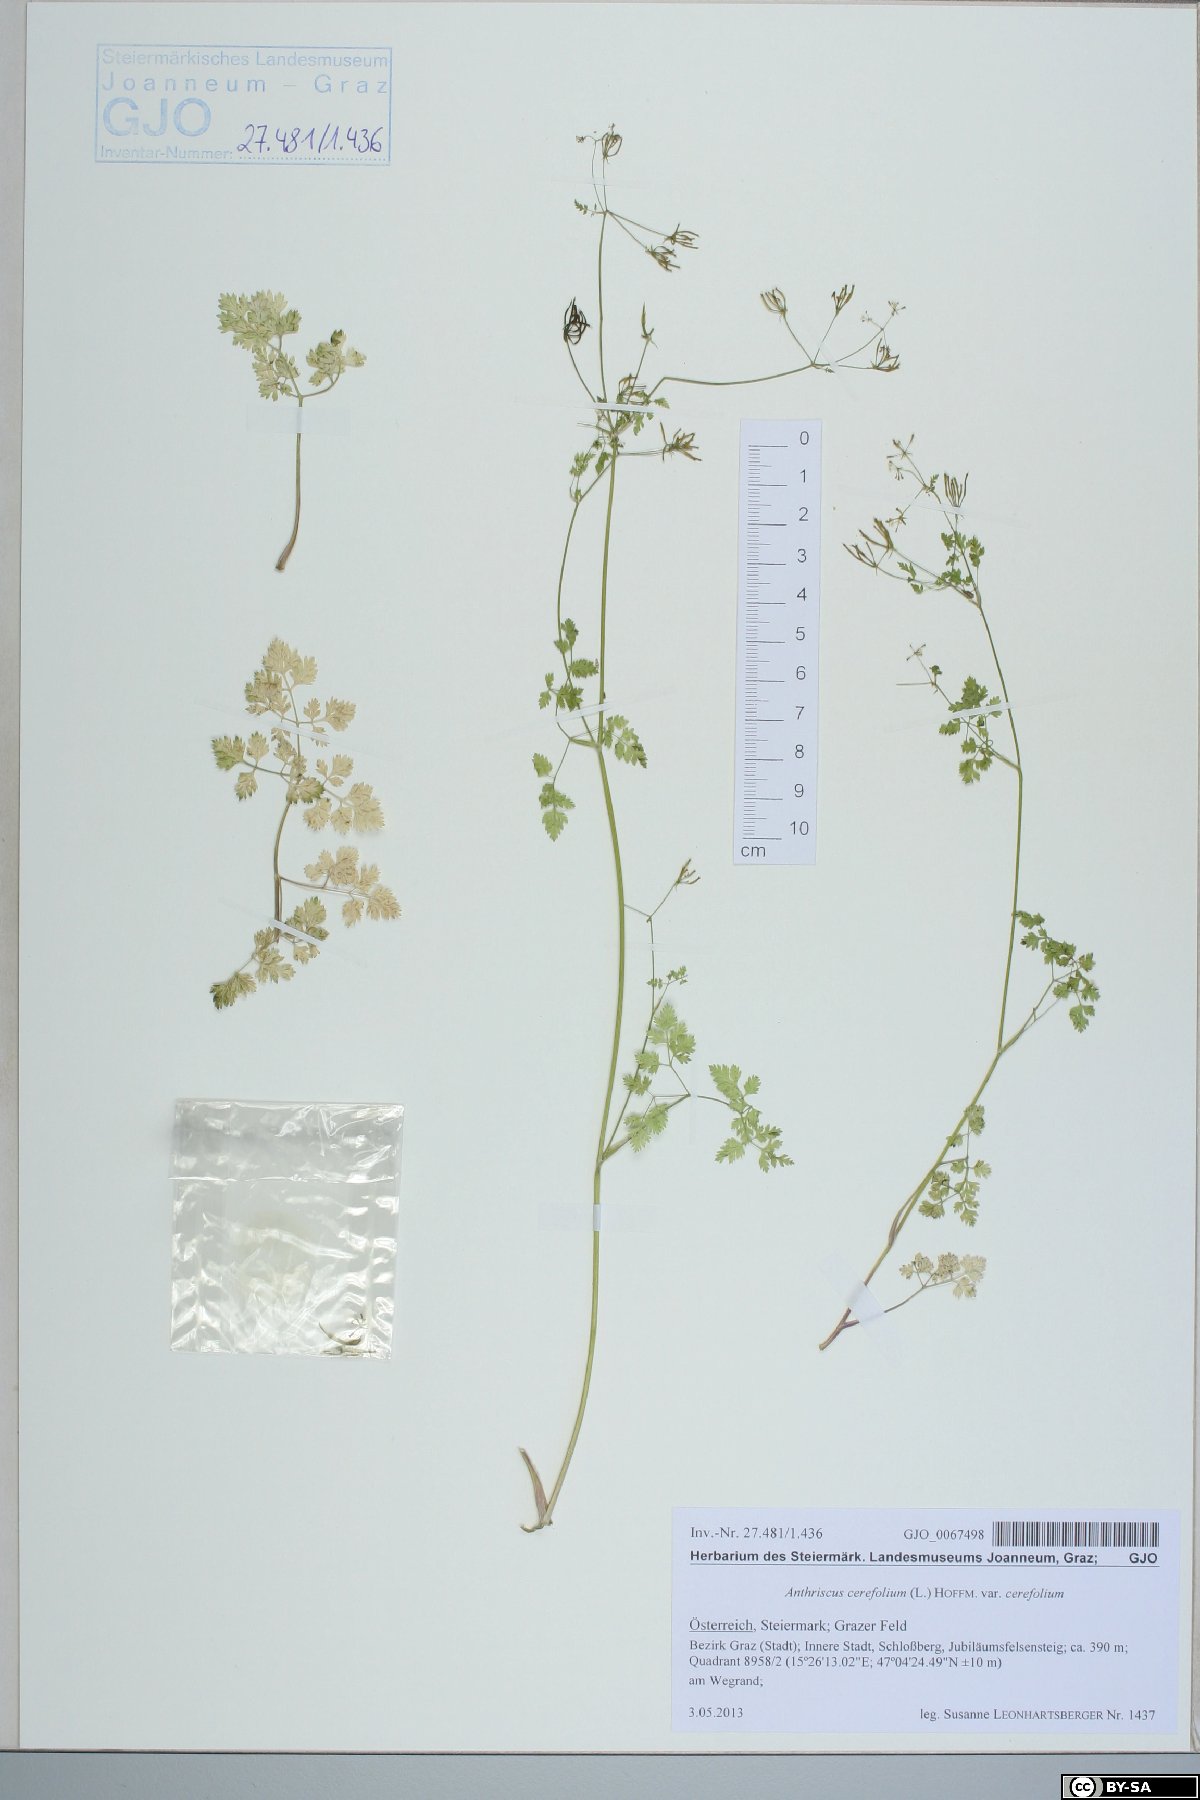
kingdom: Plantae
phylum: Tracheophyta
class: Magnoliopsida
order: Apiales
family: Apiaceae
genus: Anthriscus
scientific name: Anthriscus cerefolium
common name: Garden chervil
